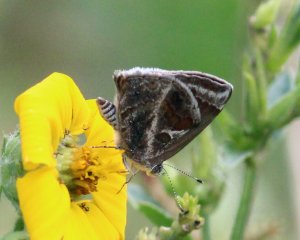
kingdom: Animalia
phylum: Arthropoda
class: Insecta
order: Lepidoptera
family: Lycaenidae
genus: Strymon
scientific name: Strymon bazochii
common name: Lantana Scrub-Hairstreak
